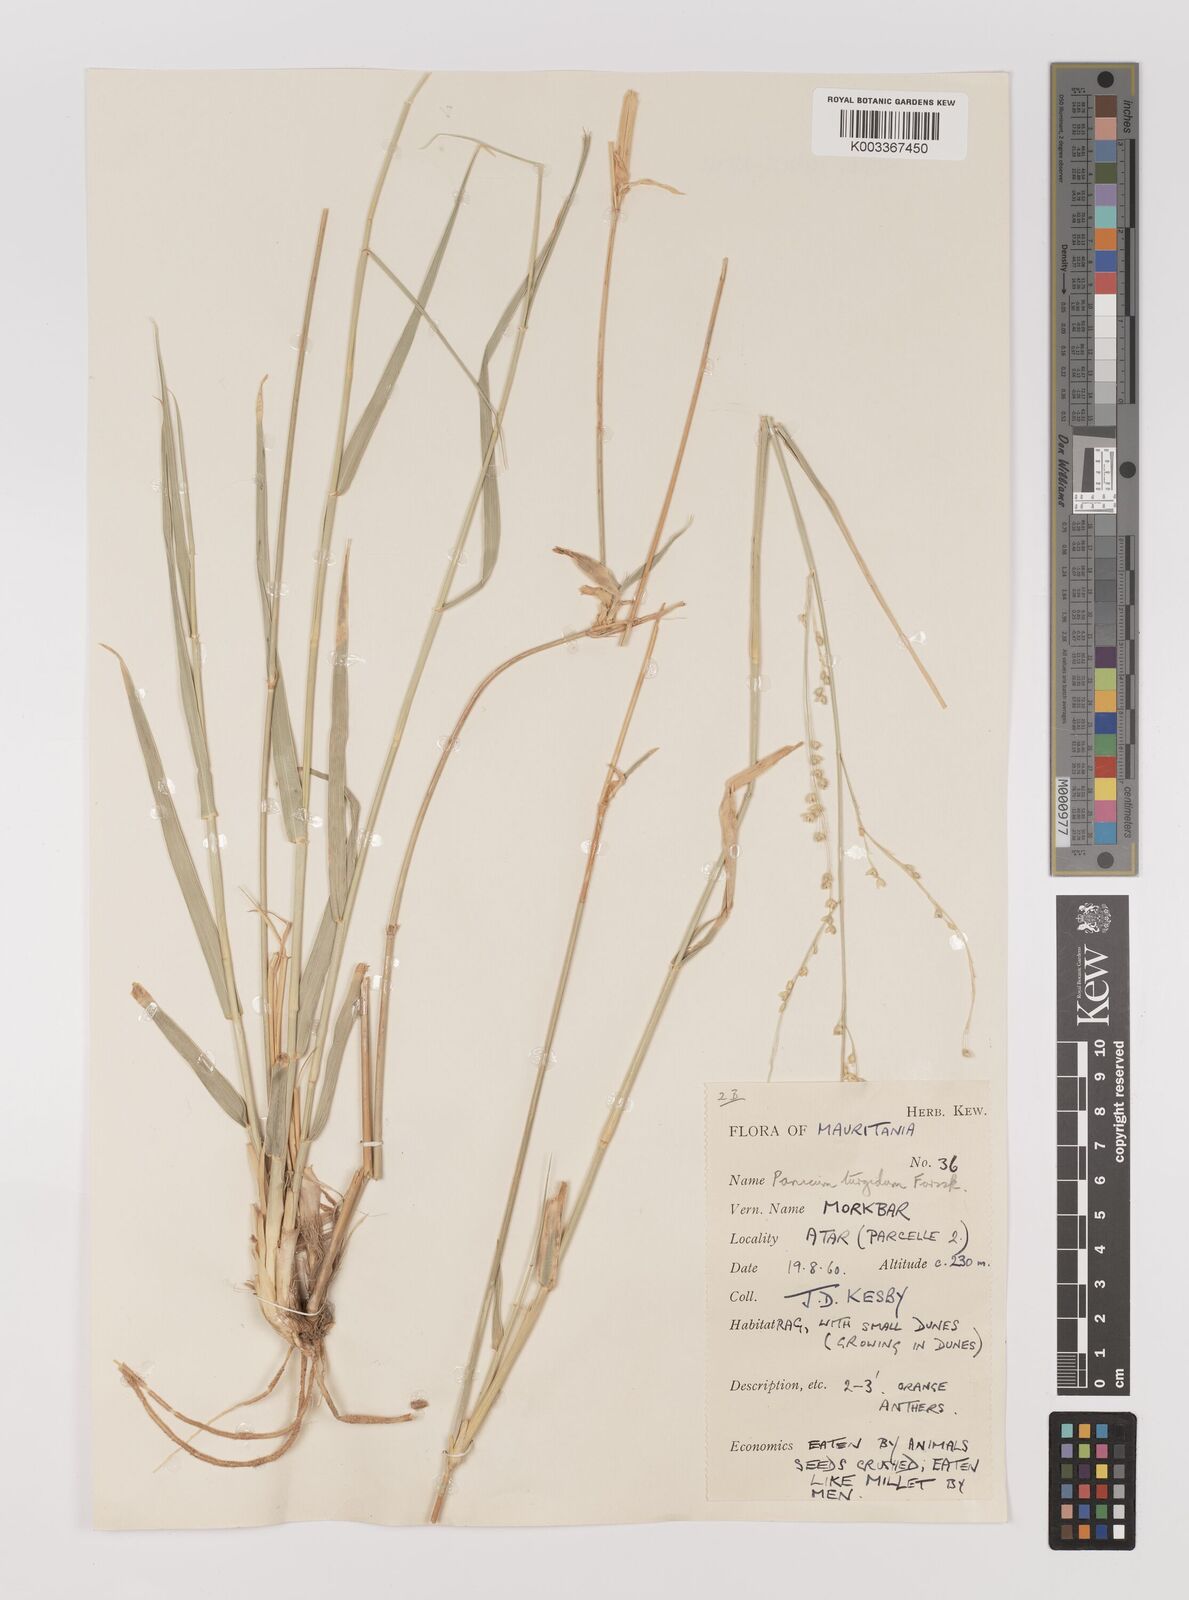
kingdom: Plantae
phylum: Tracheophyta
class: Liliopsida
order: Poales
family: Poaceae
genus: Panicum
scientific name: Panicum turgidum
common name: Desert grass
